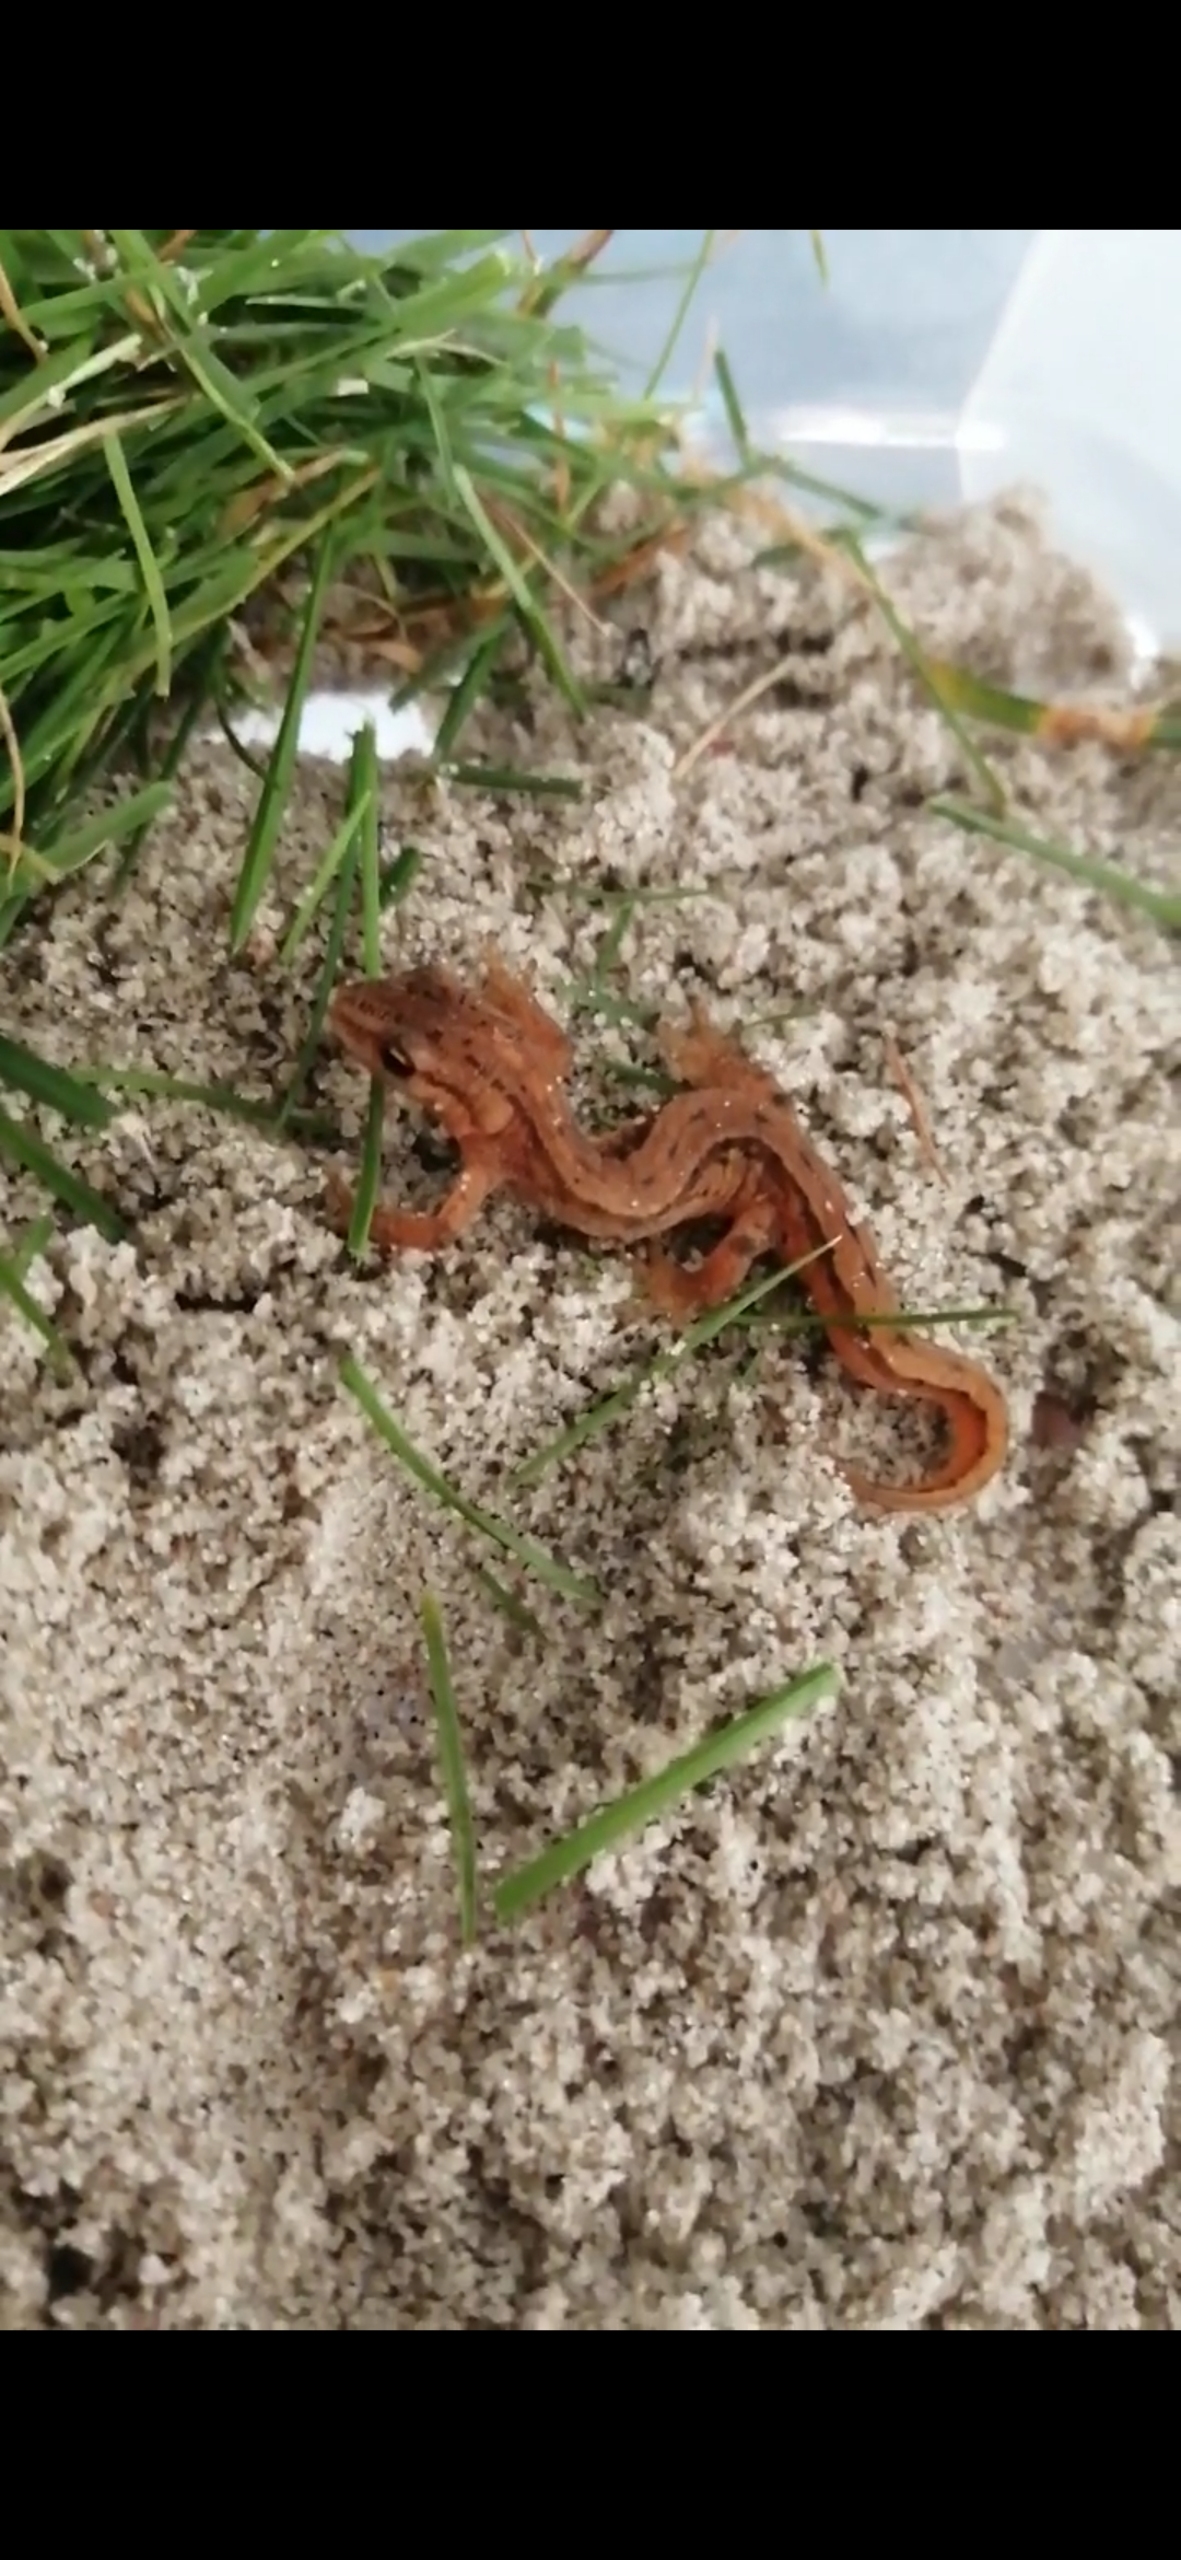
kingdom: Animalia
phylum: Chordata
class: Amphibia
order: Caudata
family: Salamandridae
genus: Lissotriton
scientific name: Lissotriton vulgaris
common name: Lille vandsalamander
